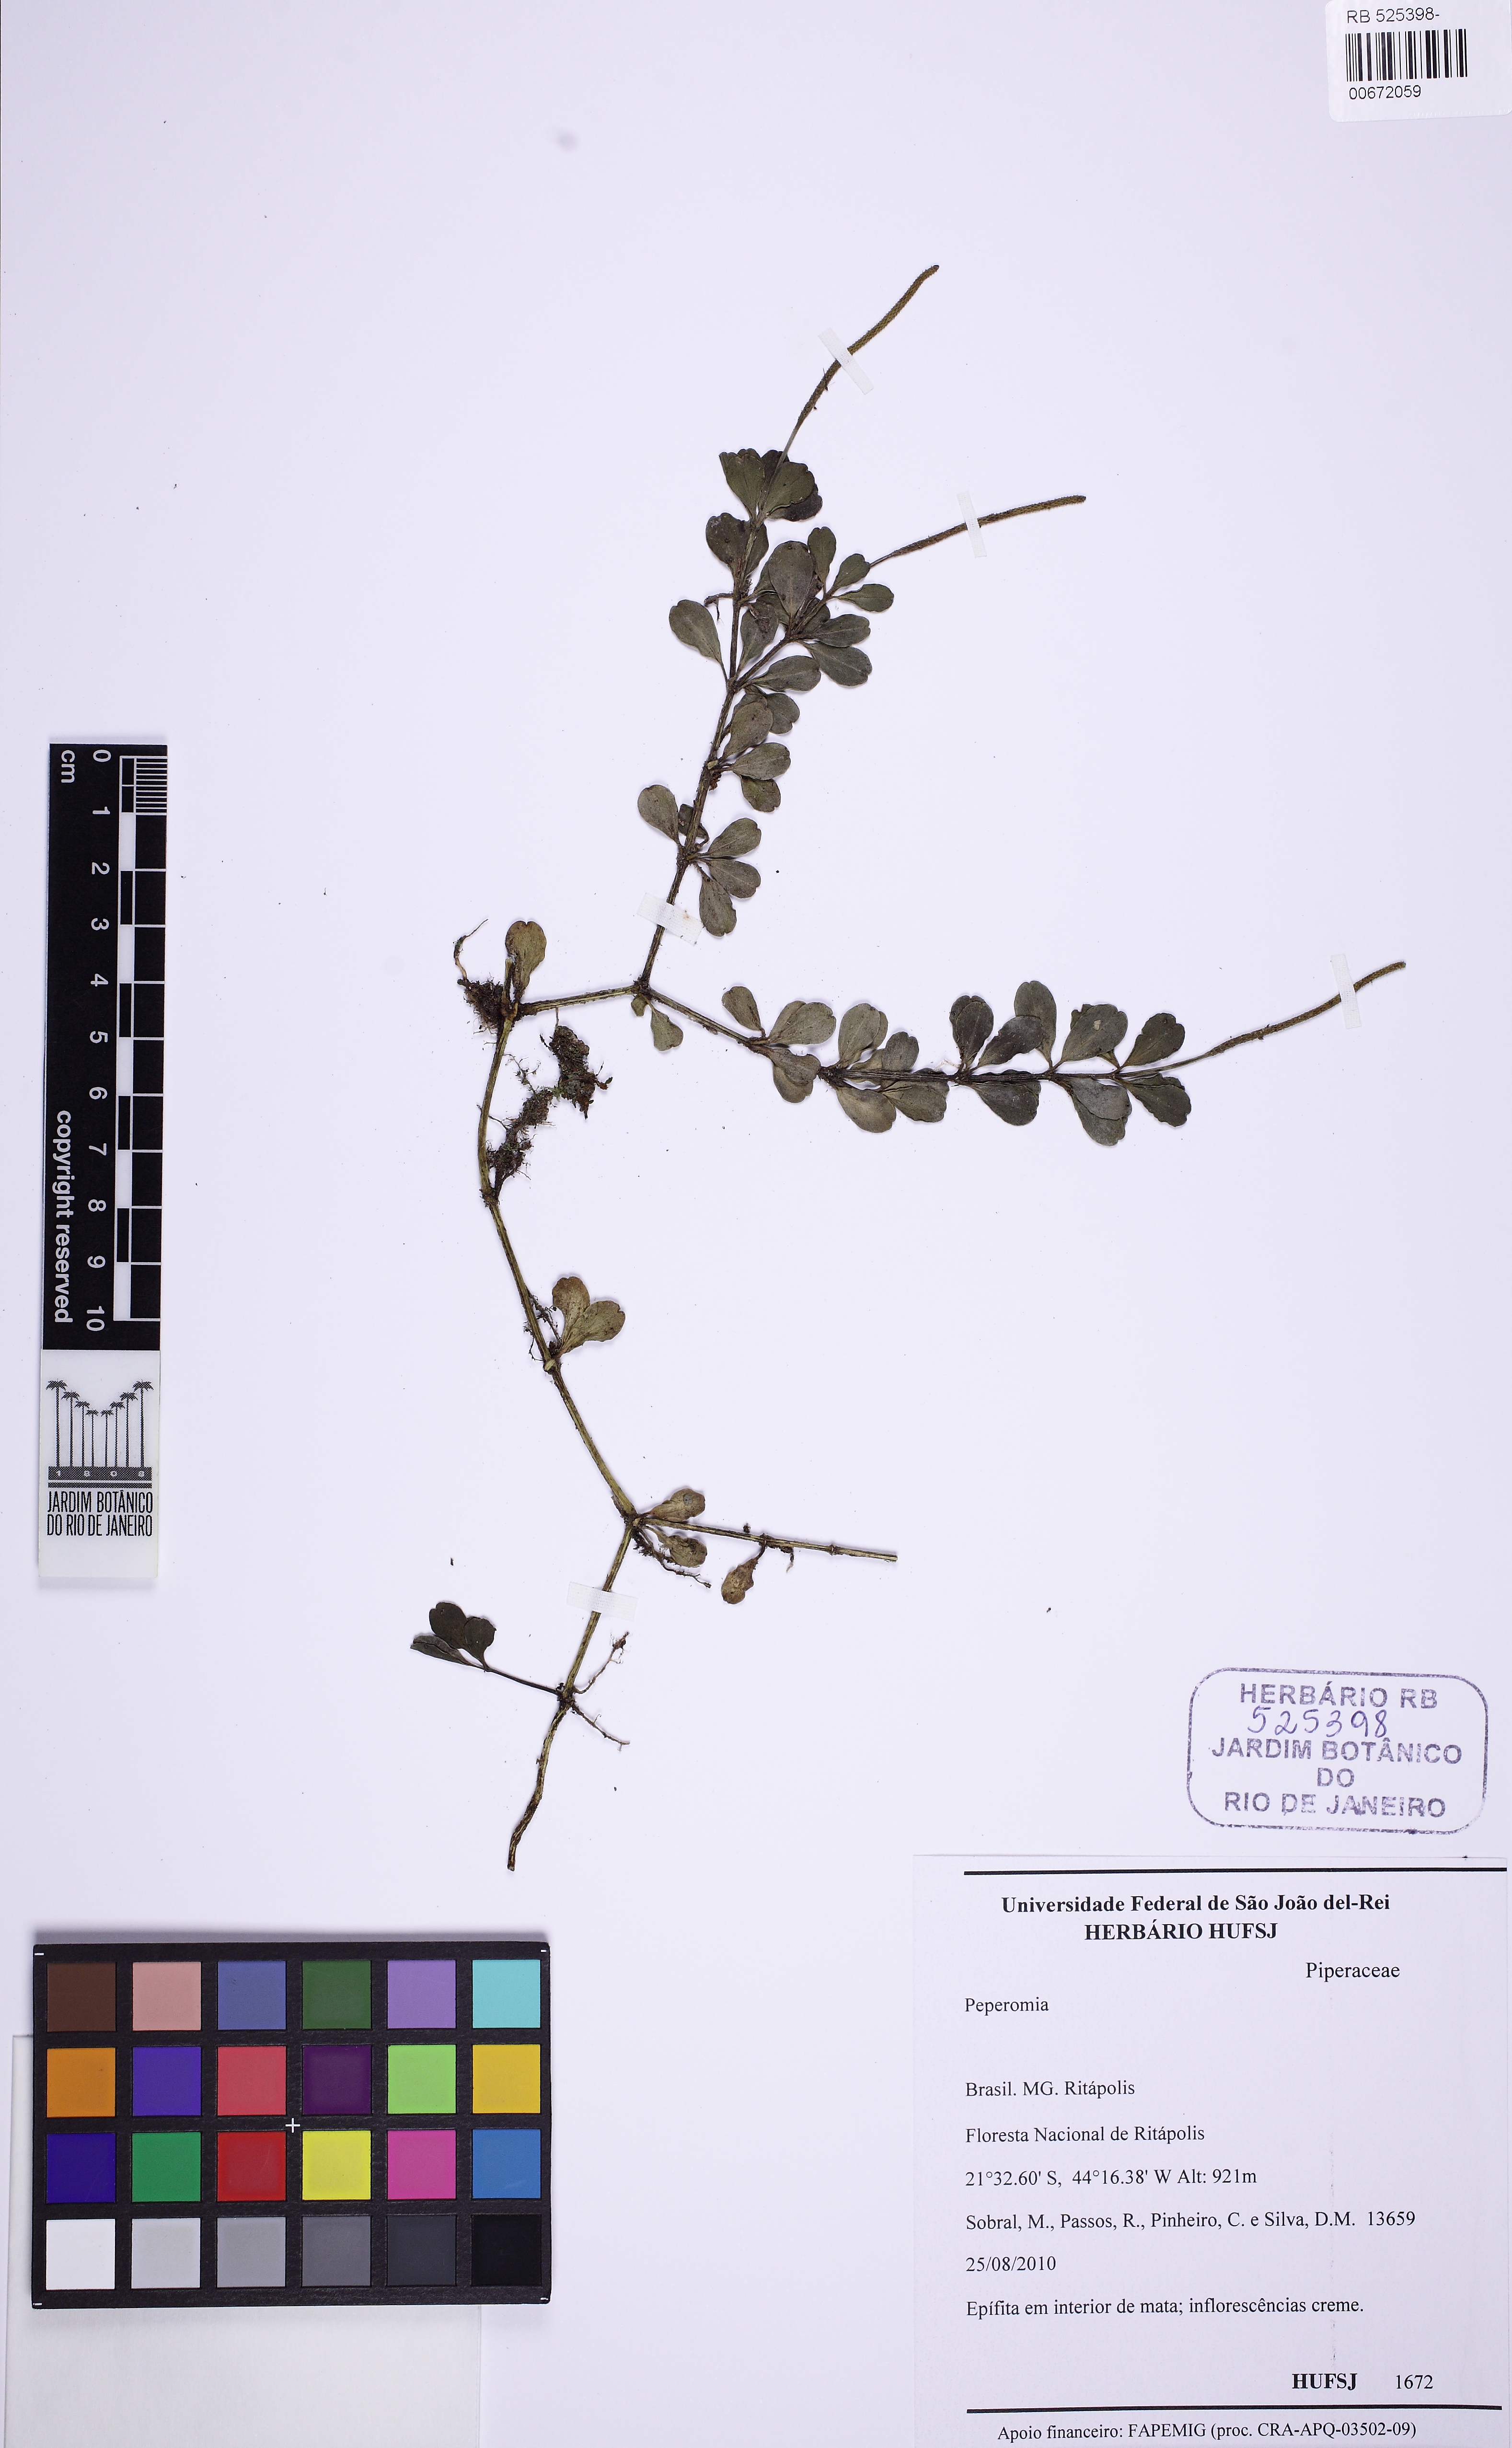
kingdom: Plantae
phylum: Tracheophyta
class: Magnoliopsida
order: Piperales
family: Piperaceae
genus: Peperomia
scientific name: Peperomia quadrifolia
